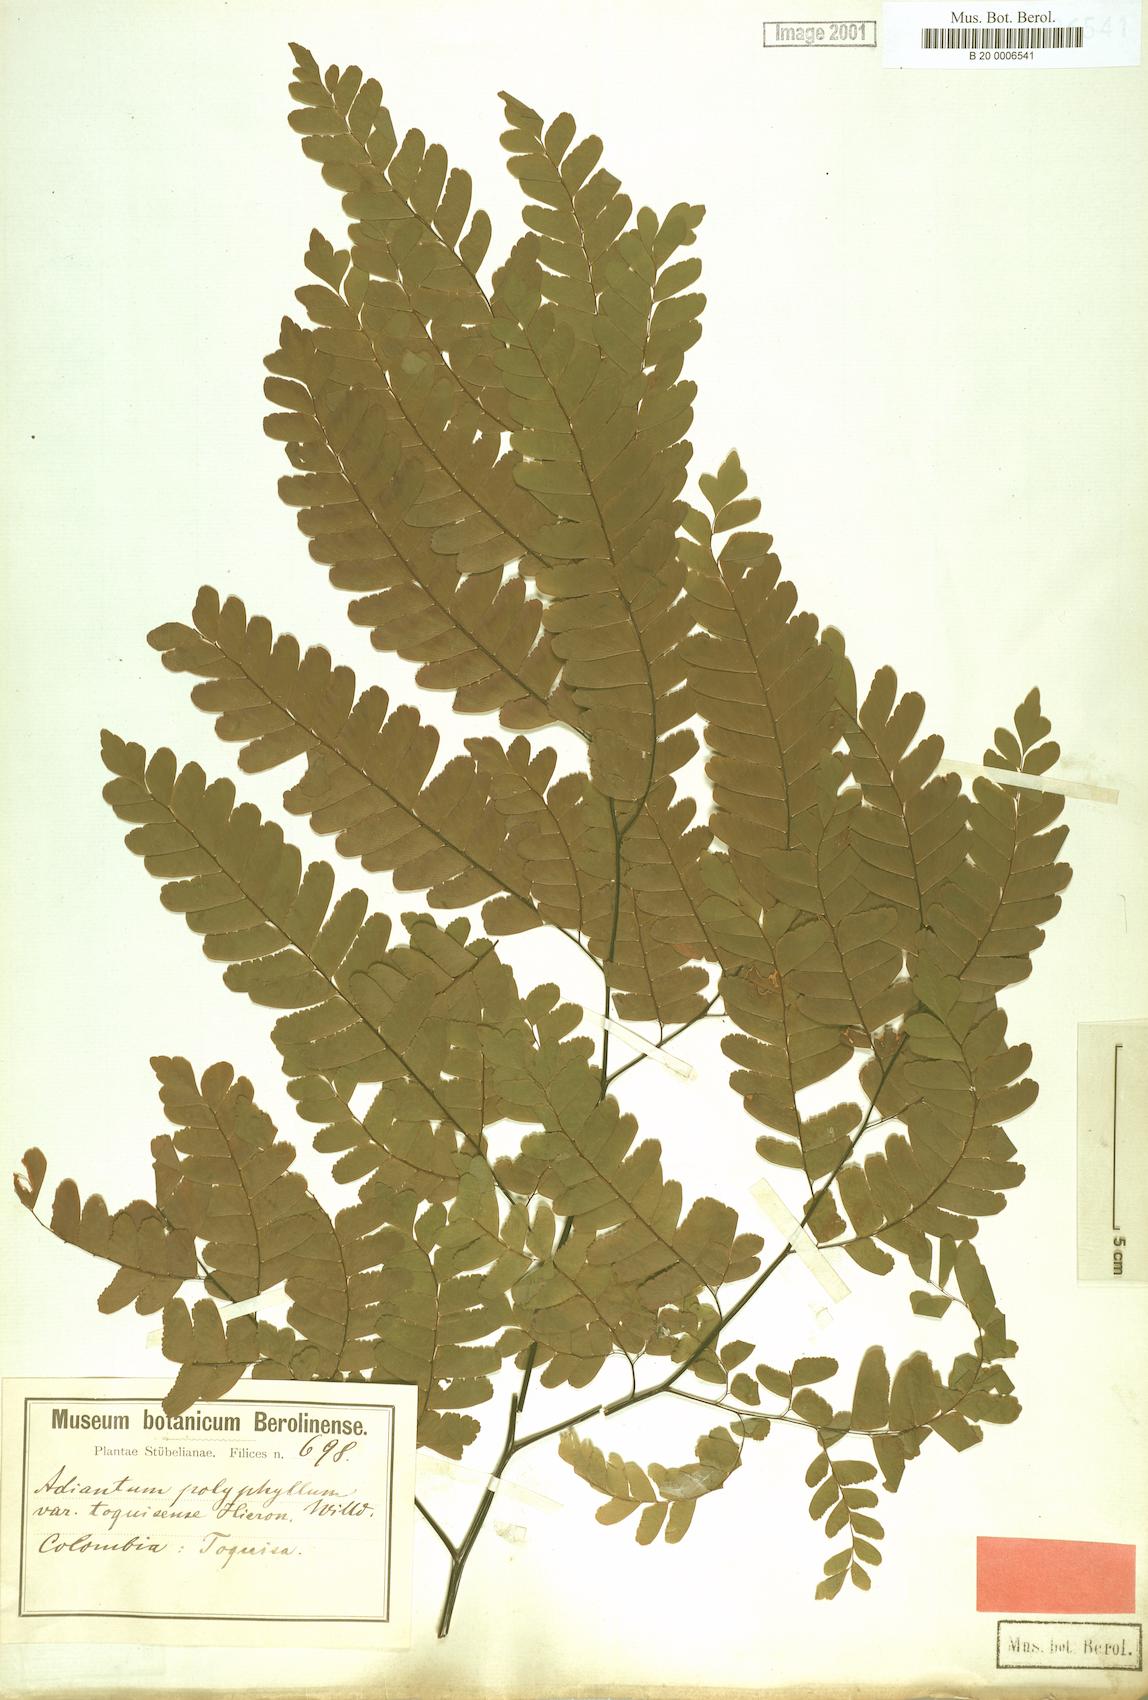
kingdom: Plantae
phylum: Tracheophyta
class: Polypodiopsida
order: Polypodiales
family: Pteridaceae
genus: Adiantum
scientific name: Adiantum polyphyllum
